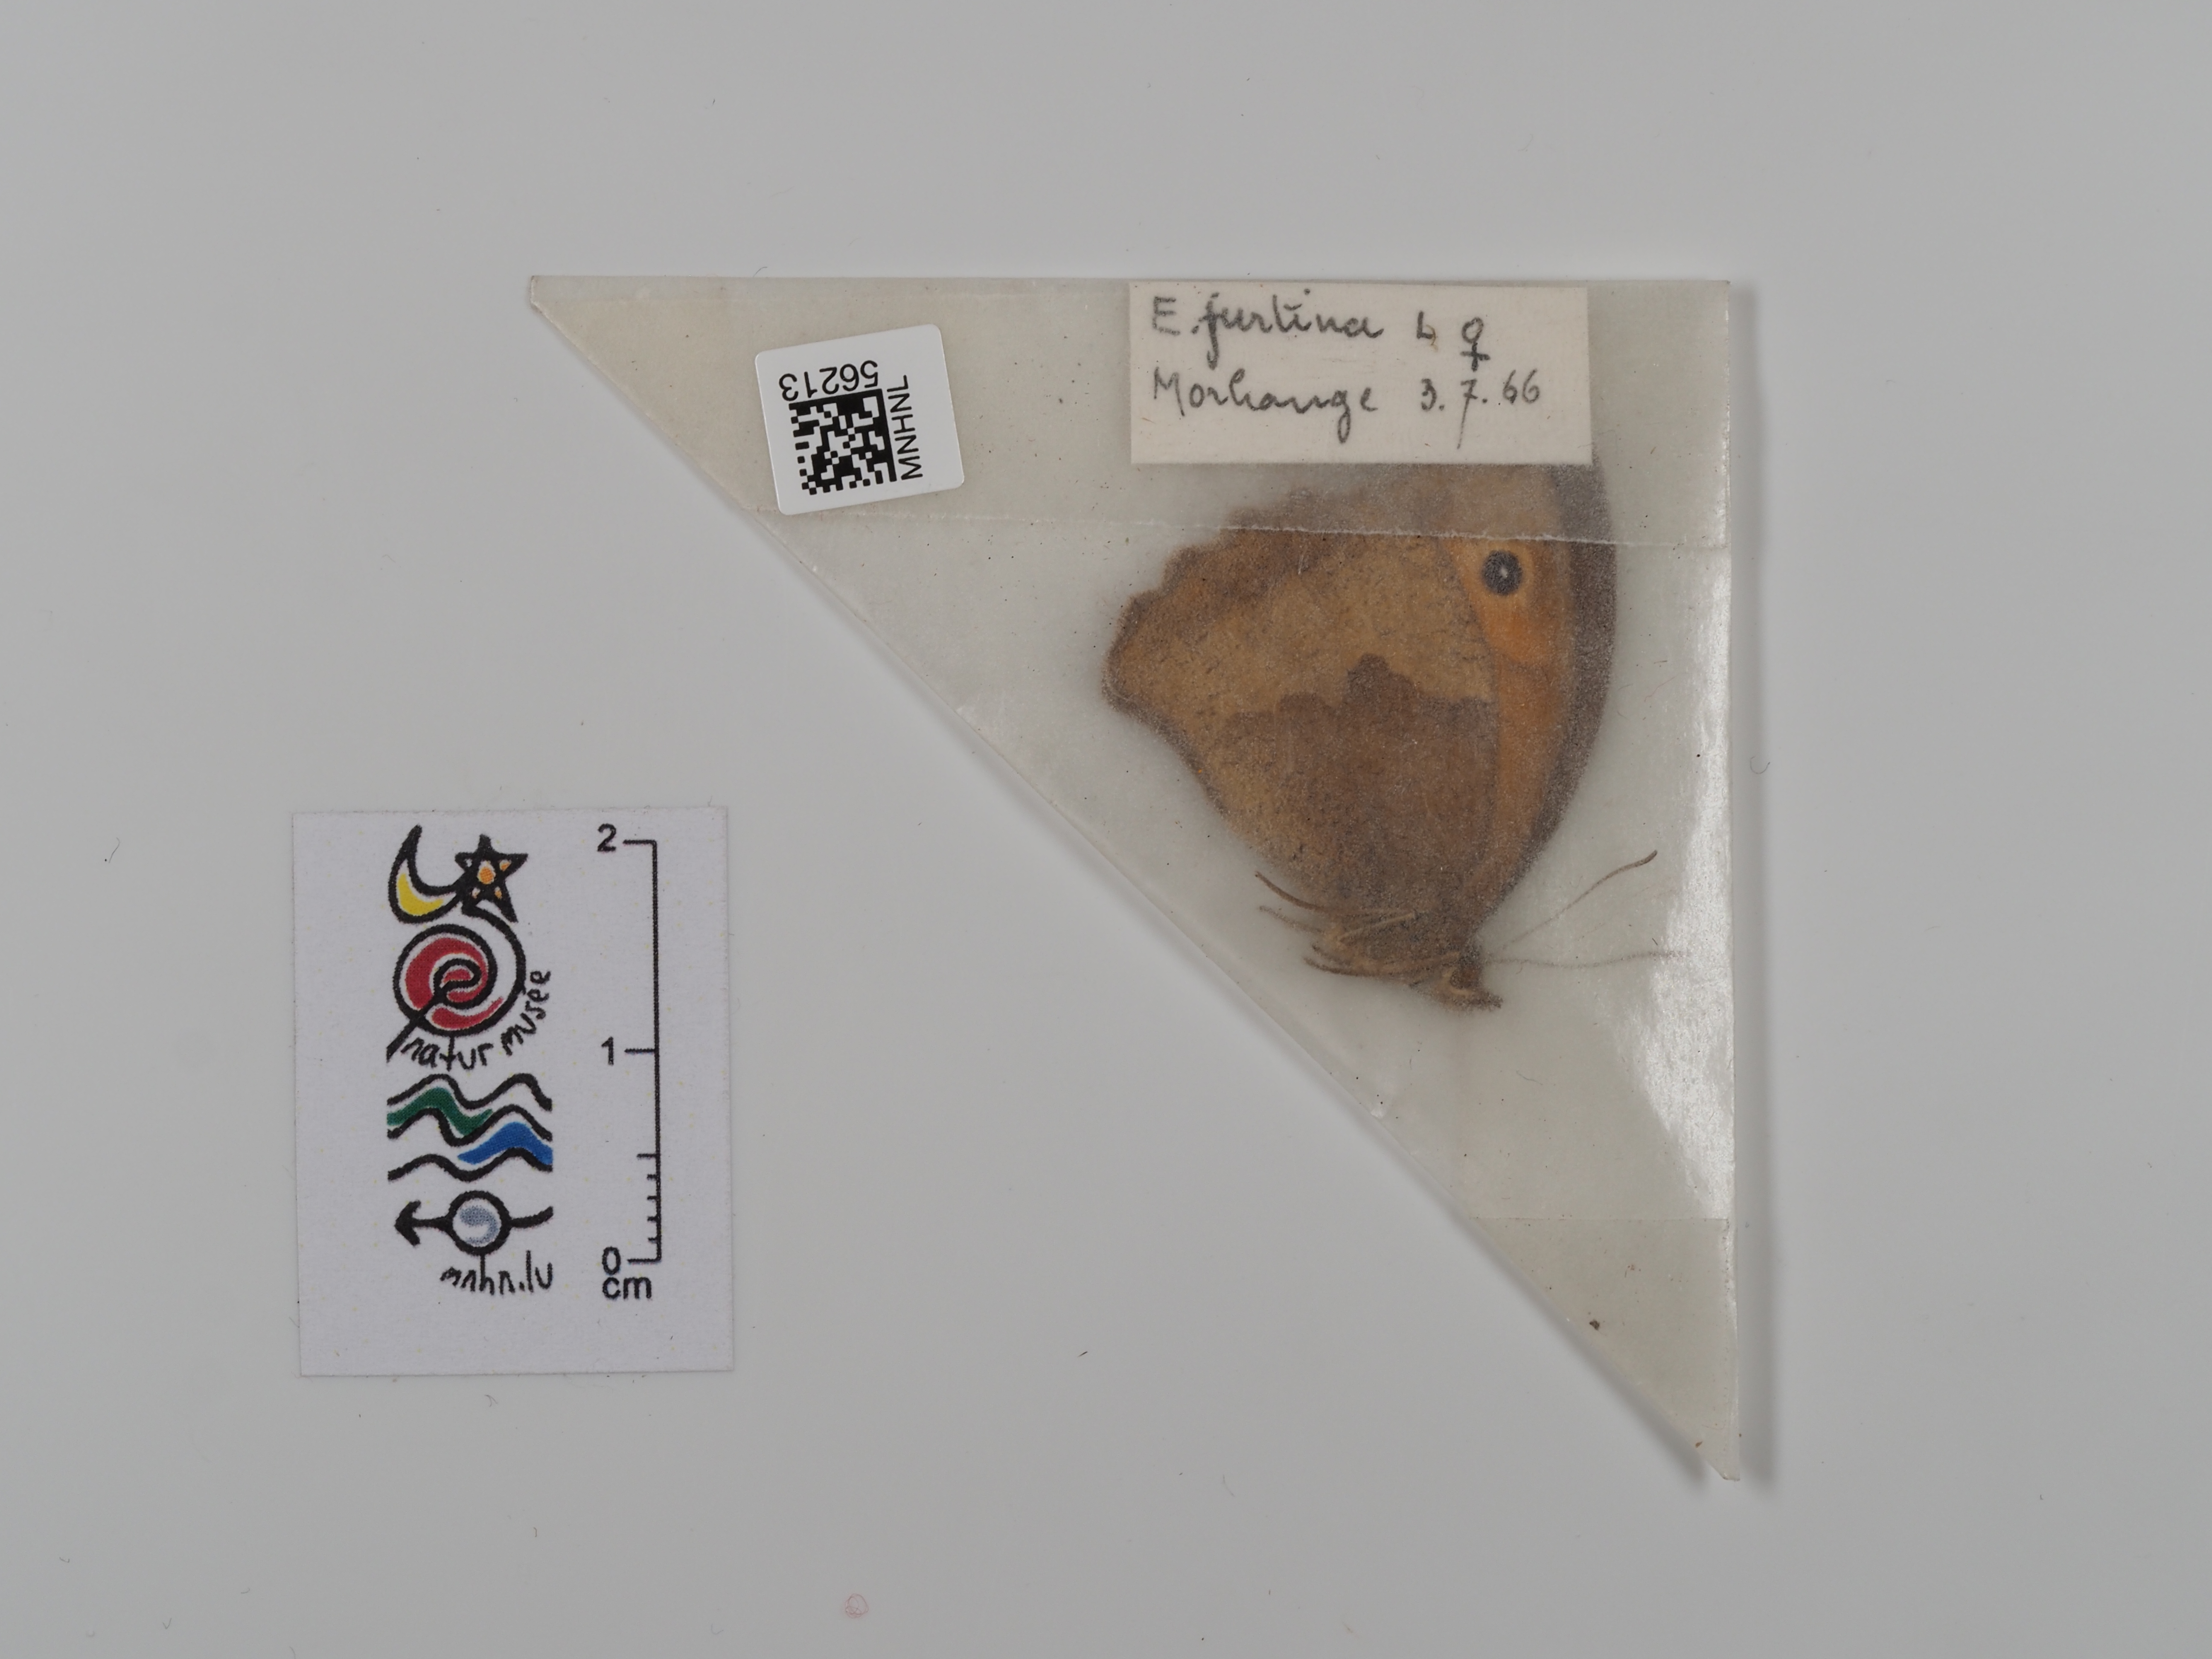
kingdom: Animalia
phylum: Arthropoda
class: Insecta
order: Lepidoptera
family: Nymphalidae
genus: Maniola
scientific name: Maniola jurtina
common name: Meadow brown
